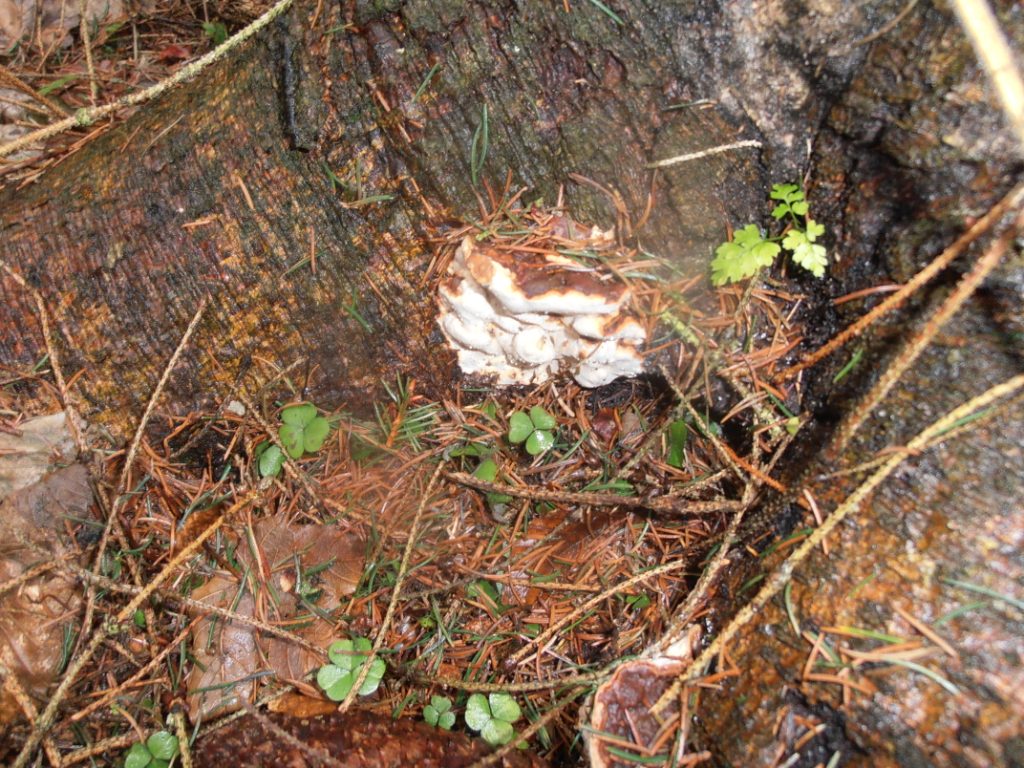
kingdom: Fungi
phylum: Basidiomycota
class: Agaricomycetes
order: Russulales
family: Bondarzewiaceae
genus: Heterobasidion
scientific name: Heterobasidion annosum
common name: almindelig rodfordærver
